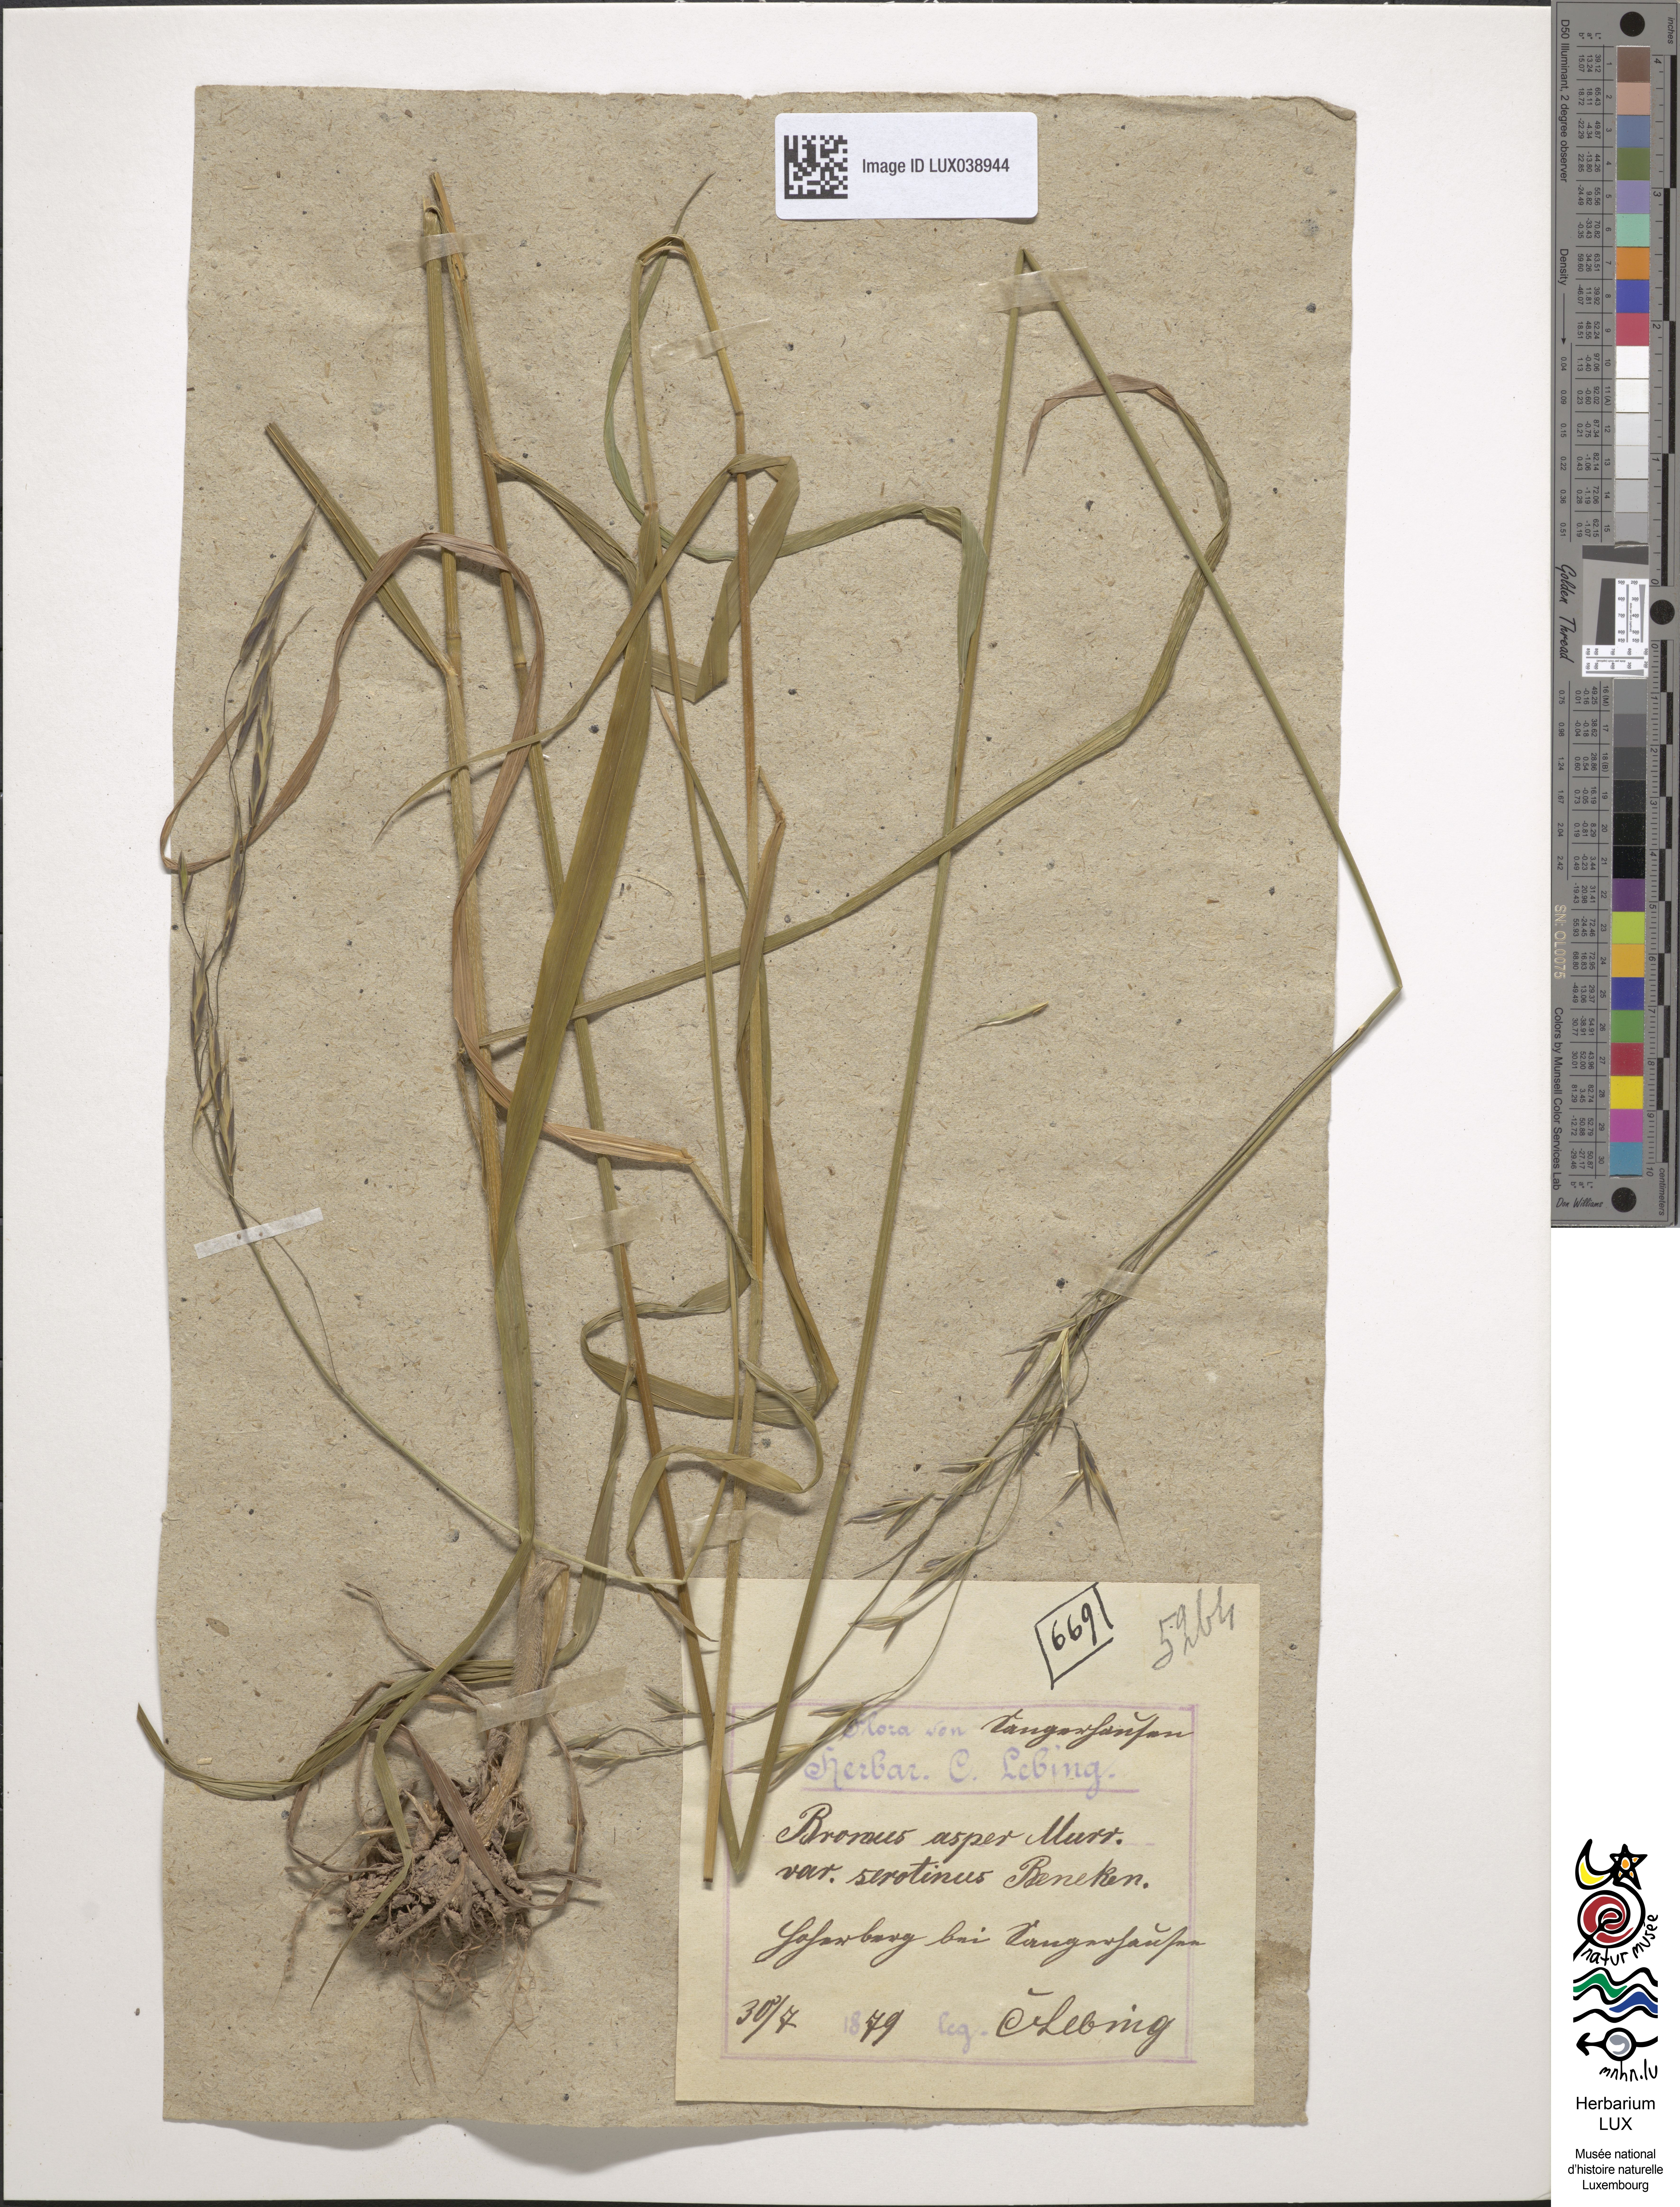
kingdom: Plantae
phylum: Tracheophyta
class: Liliopsida
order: Poales
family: Poaceae
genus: Bromus
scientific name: Bromus ramosus
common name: Hairy brome
